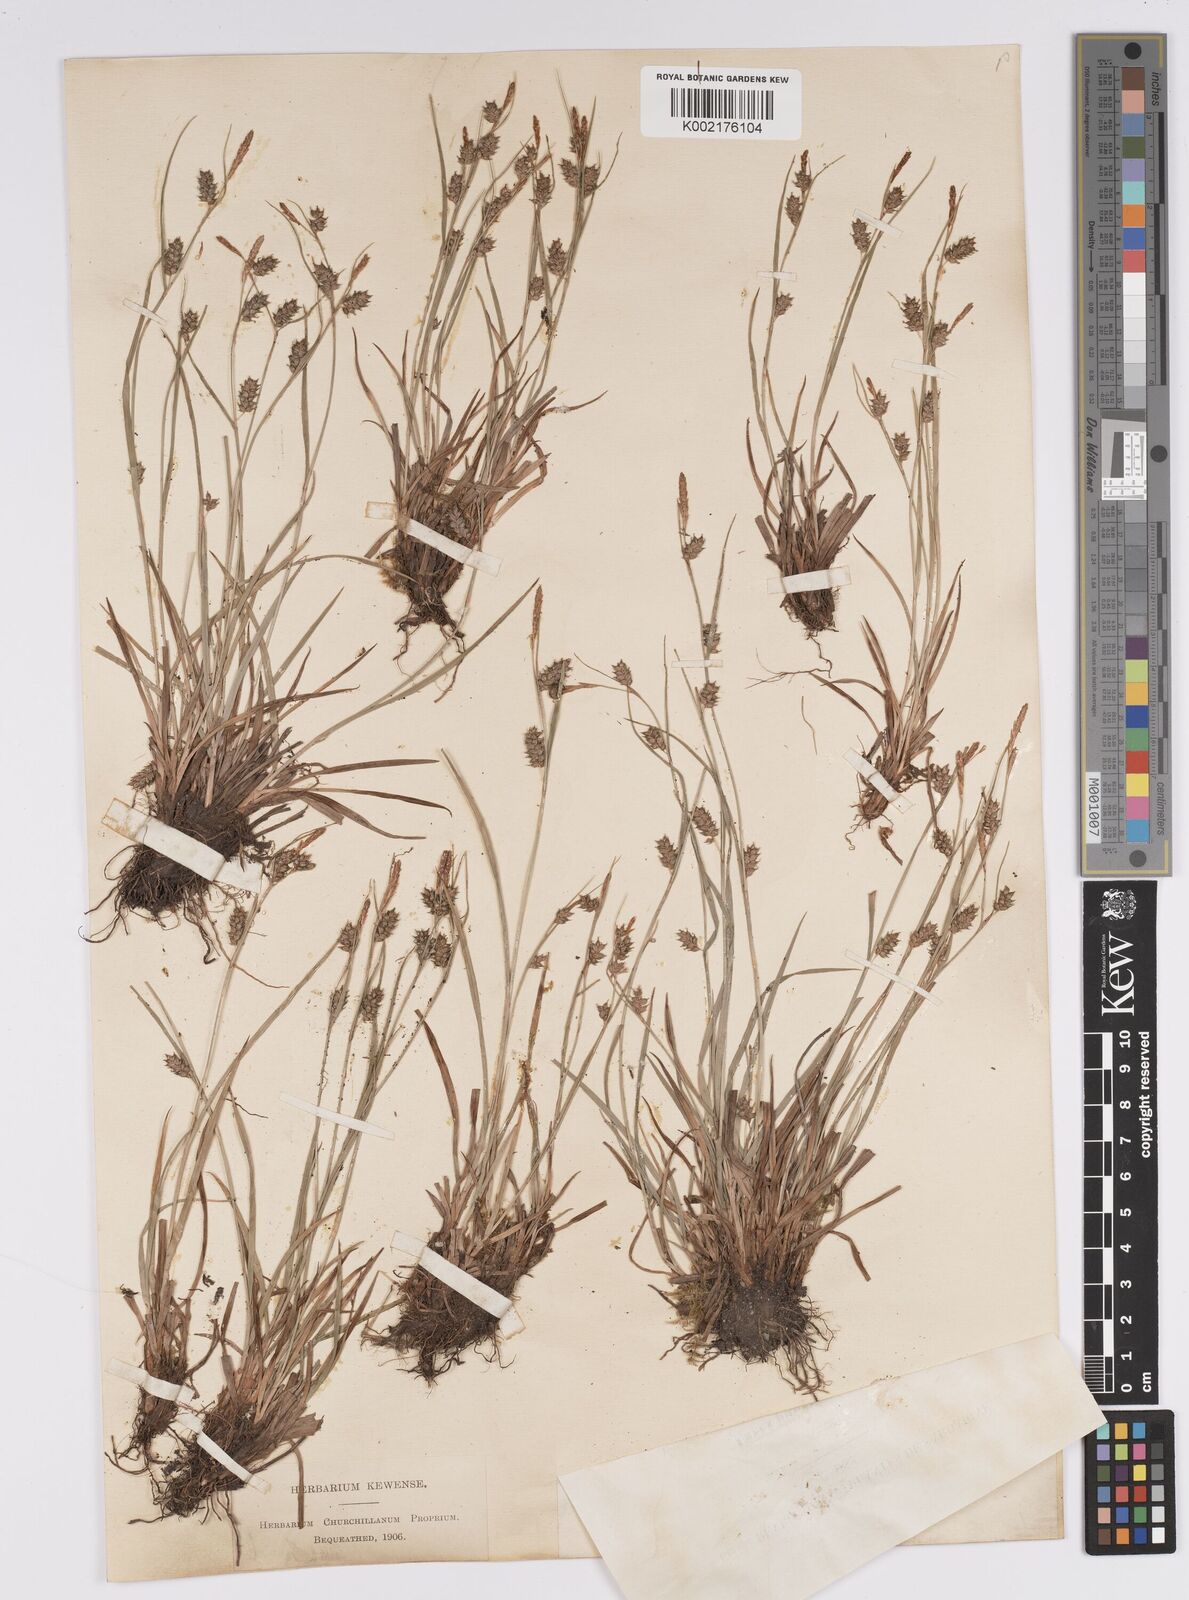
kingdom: Plantae
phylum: Tracheophyta
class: Liliopsida
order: Poales
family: Cyperaceae
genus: Carex
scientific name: Carex punctata
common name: Dotted sedge
